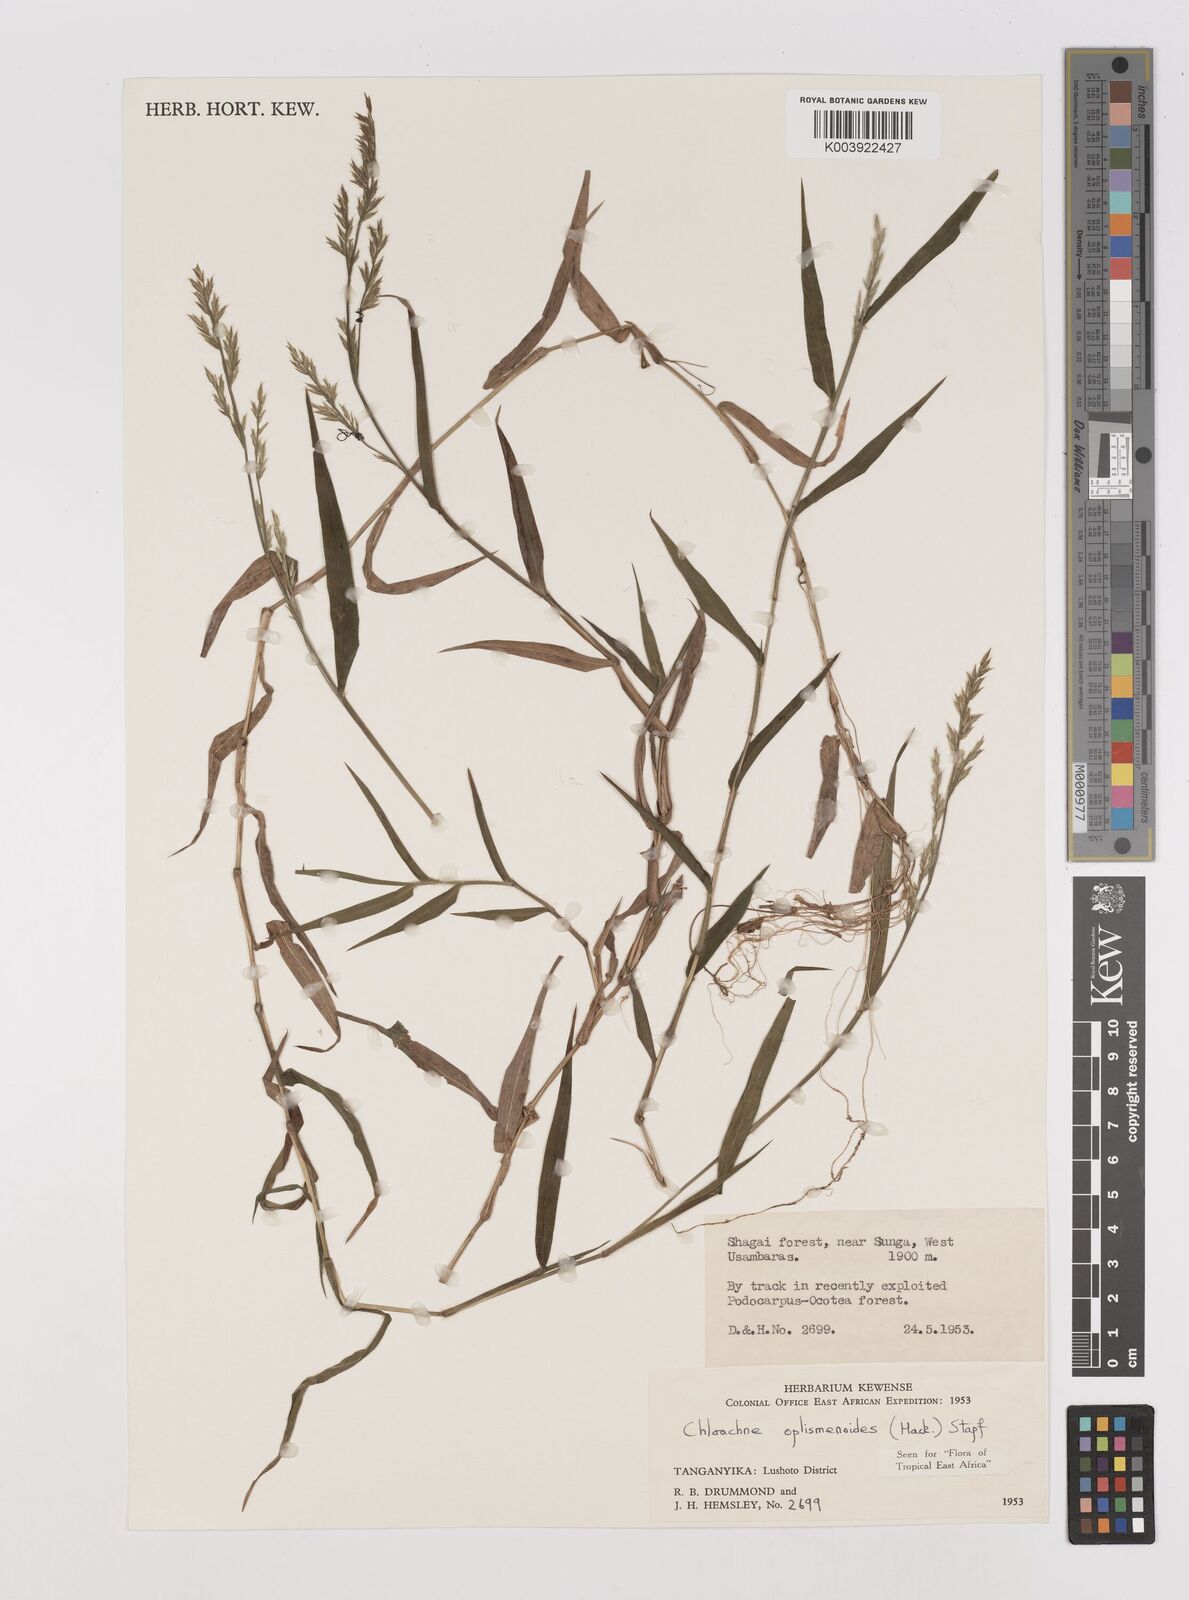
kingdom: Plantae
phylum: Tracheophyta
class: Liliopsida
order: Poales
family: Poaceae
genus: Poecilostachys
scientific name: Poecilostachys oplismenoides
